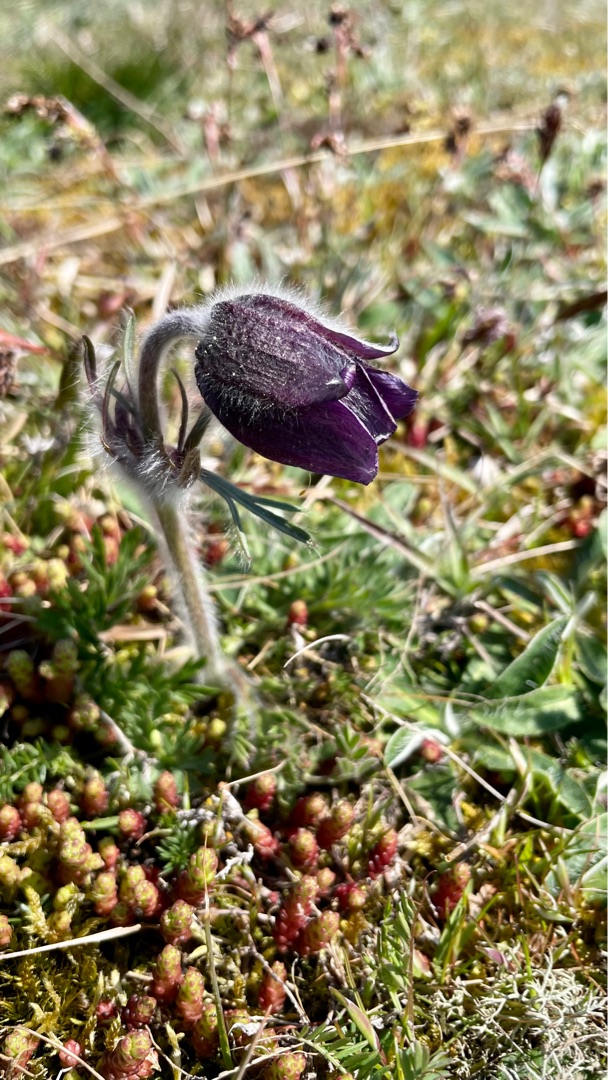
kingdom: Plantae
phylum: Tracheophyta
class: Magnoliopsida
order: Ranunculales
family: Ranunculaceae
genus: Pulsatilla
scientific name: Pulsatilla pratensis
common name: Nikkende kobjælde
